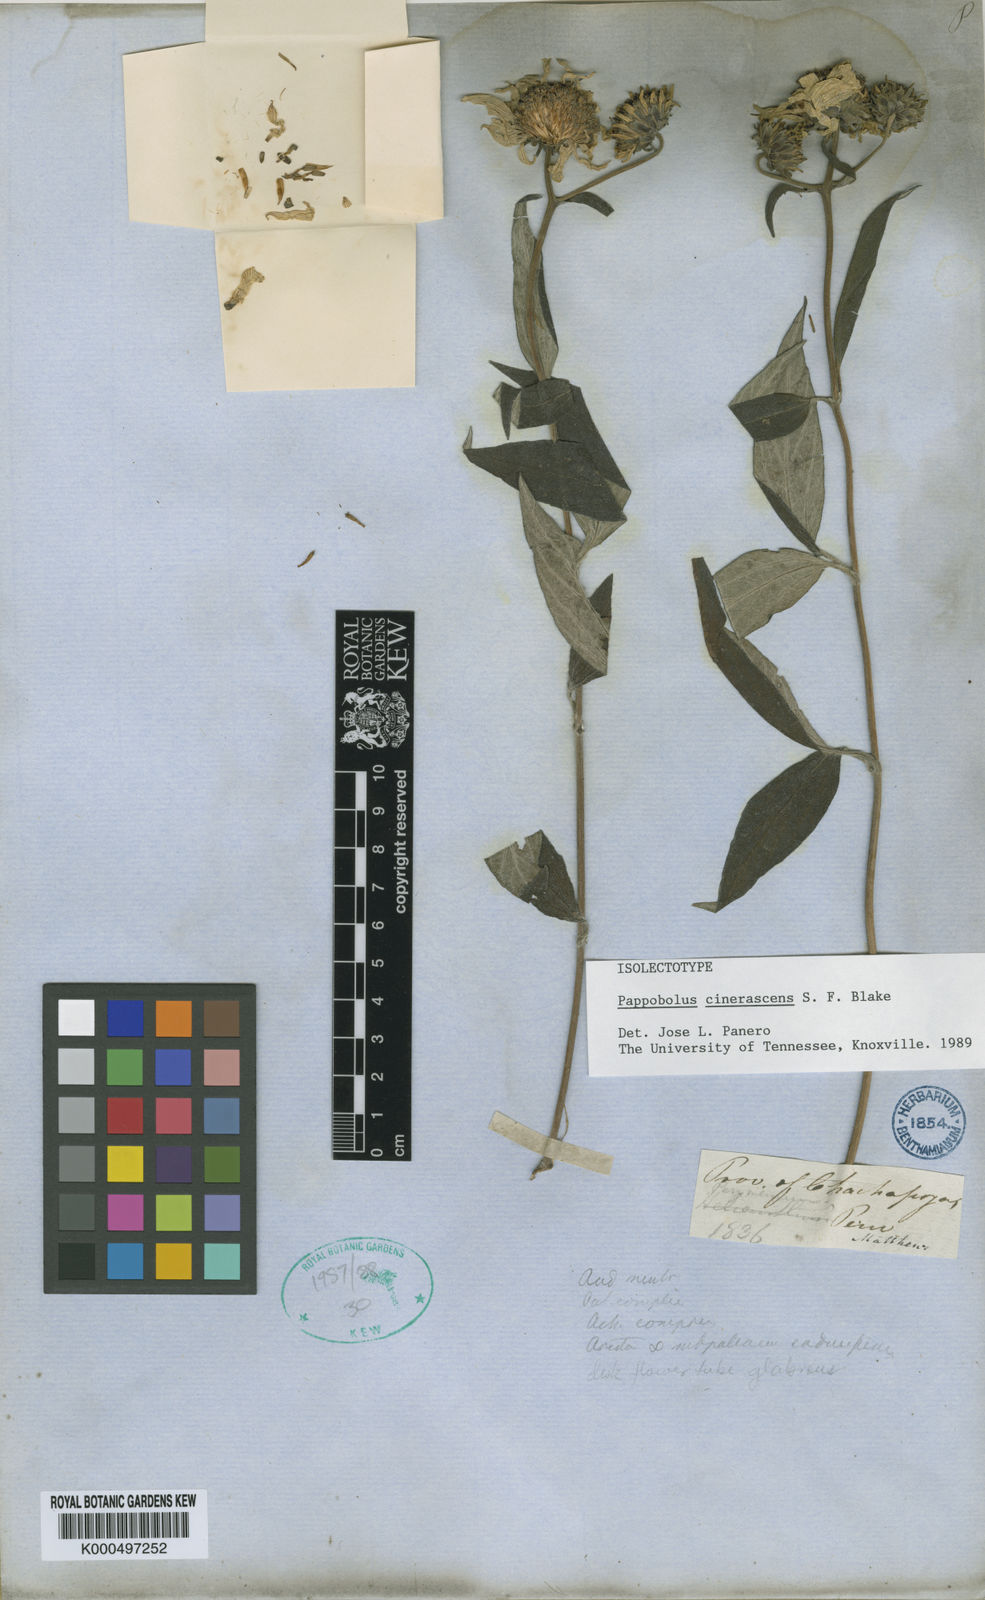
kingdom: Plantae
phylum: Tracheophyta
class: Magnoliopsida
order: Asterales
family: Asteraceae
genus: Pappobolus
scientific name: Pappobolus cinerascens
